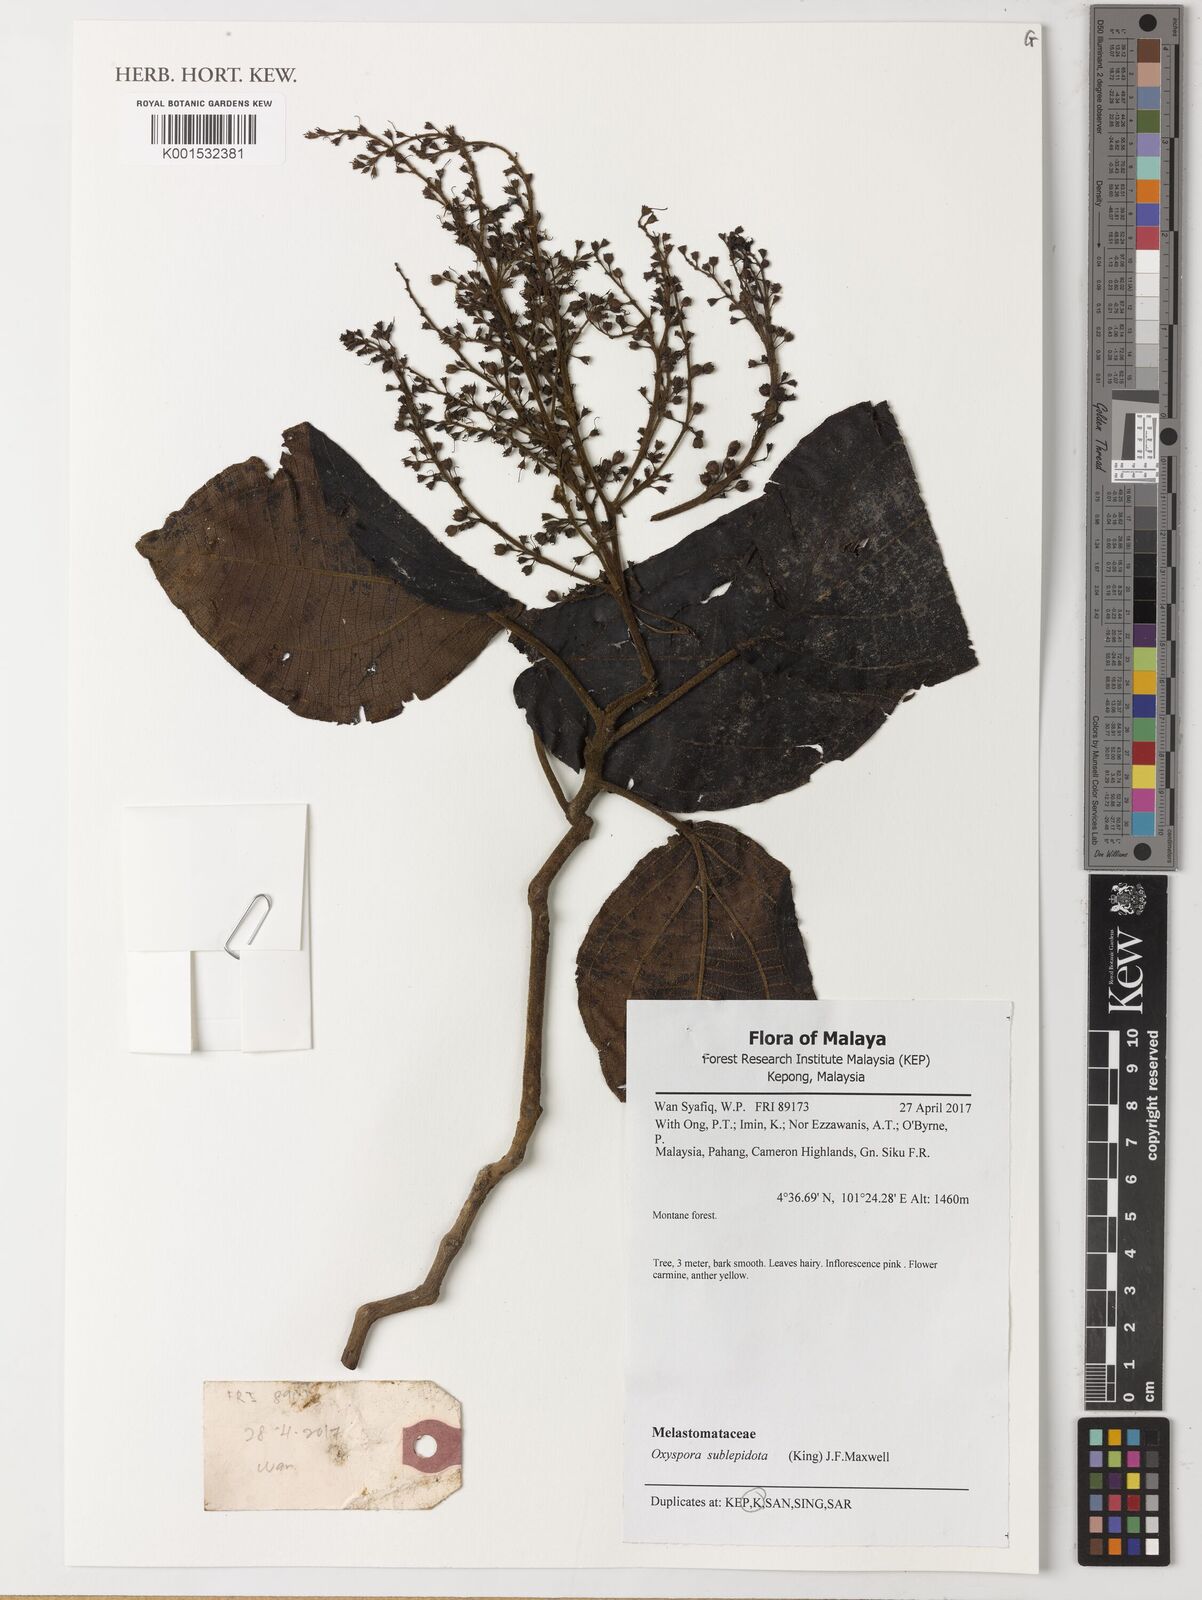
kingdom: Plantae
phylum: Tracheophyta
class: Magnoliopsida
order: Myrtales
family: Melastomataceae
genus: Allomorphia
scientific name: Allomorphia rosea
